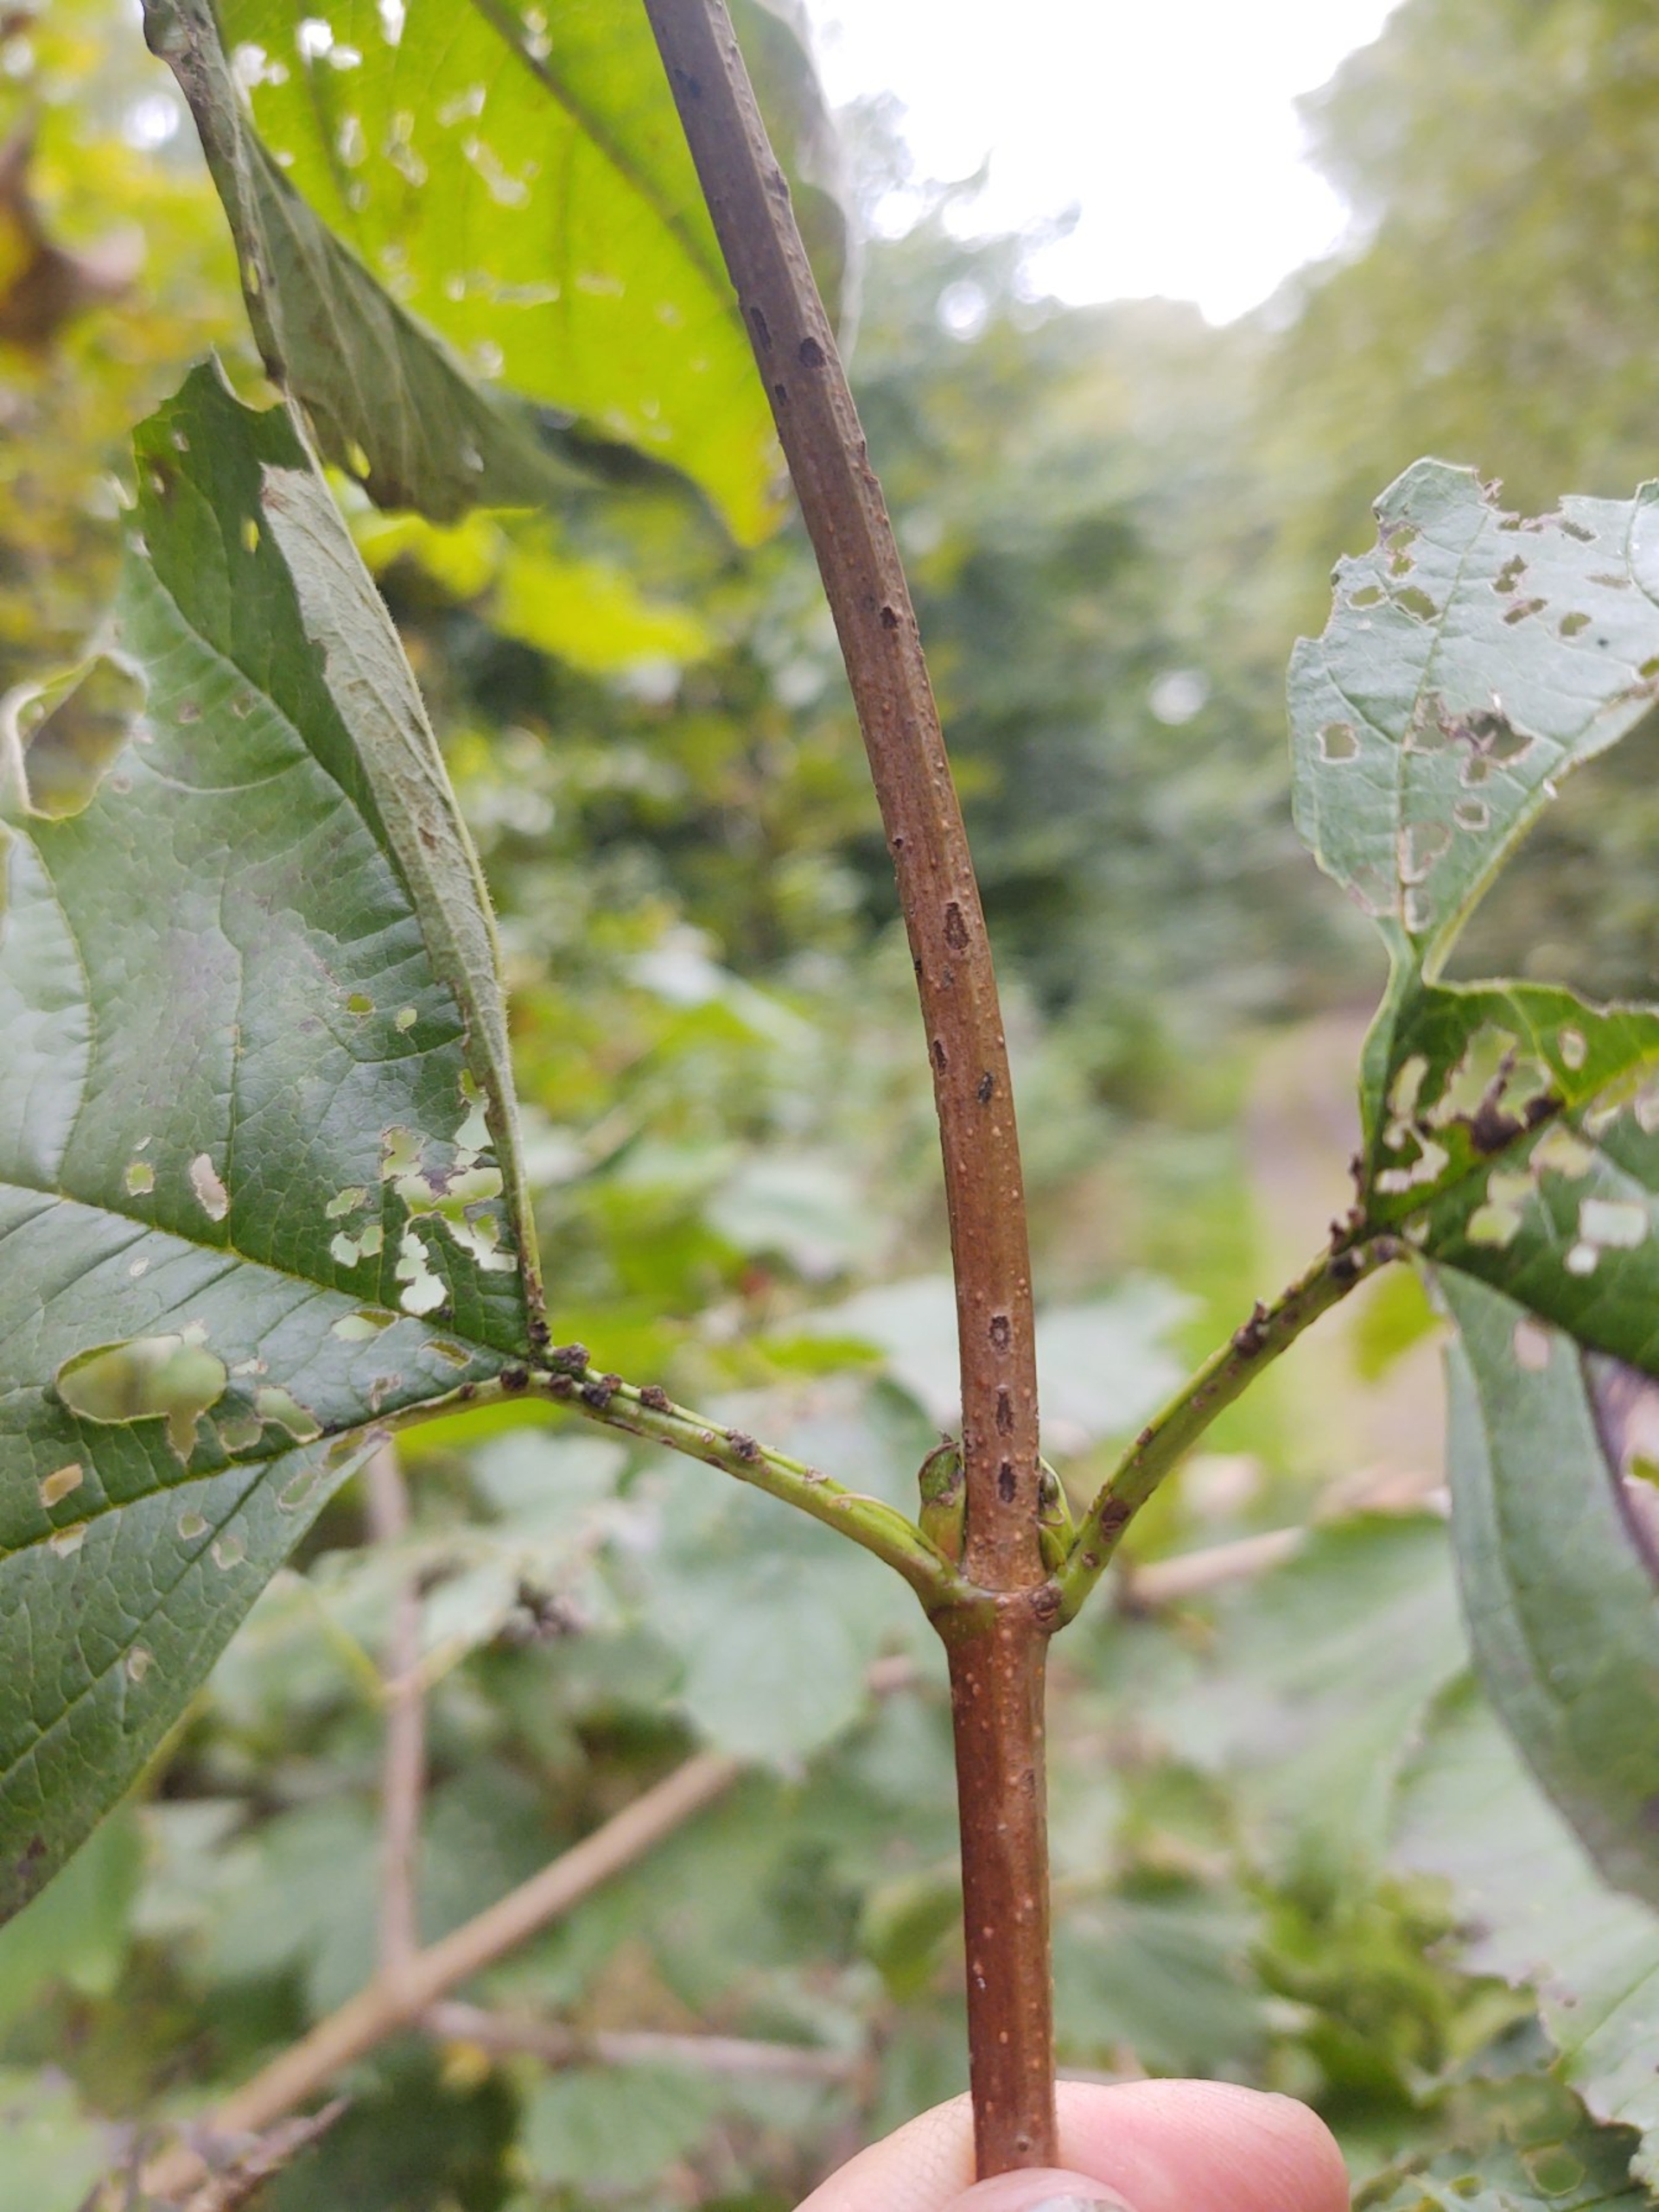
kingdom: Plantae
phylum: Tracheophyta
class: Magnoliopsida
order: Dipsacales
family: Viburnaceae
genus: Viburnum
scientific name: Viburnum opulus
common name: Kvalkved
